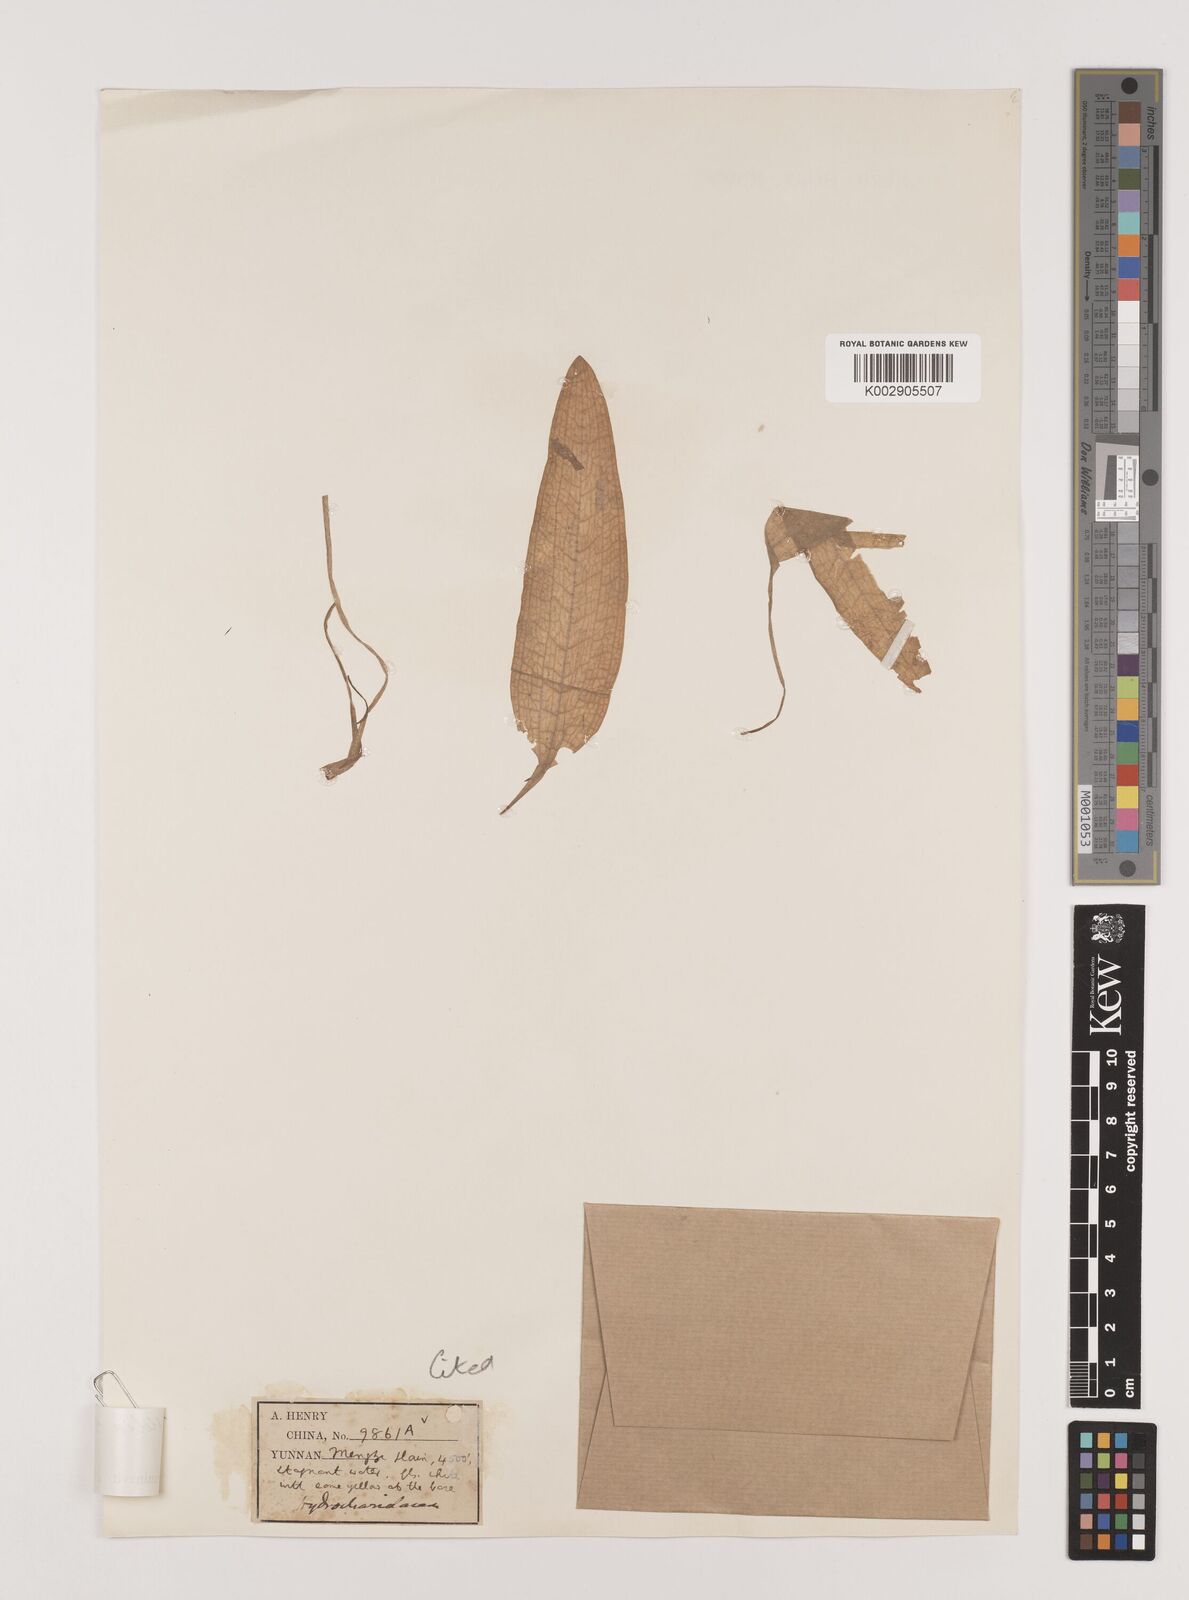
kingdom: Plantae
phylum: Tracheophyta
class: Liliopsida
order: Alismatales
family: Hydrocharitaceae
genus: Ottelia
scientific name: Ottelia acuminata
